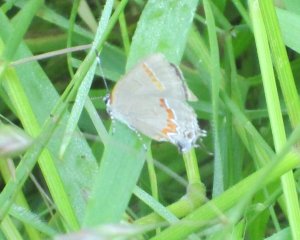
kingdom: Animalia
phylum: Arthropoda
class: Insecta
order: Lepidoptera
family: Lycaenidae
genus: Calycopis
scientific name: Calycopis cecrops
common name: Red-banded Hairstreak
